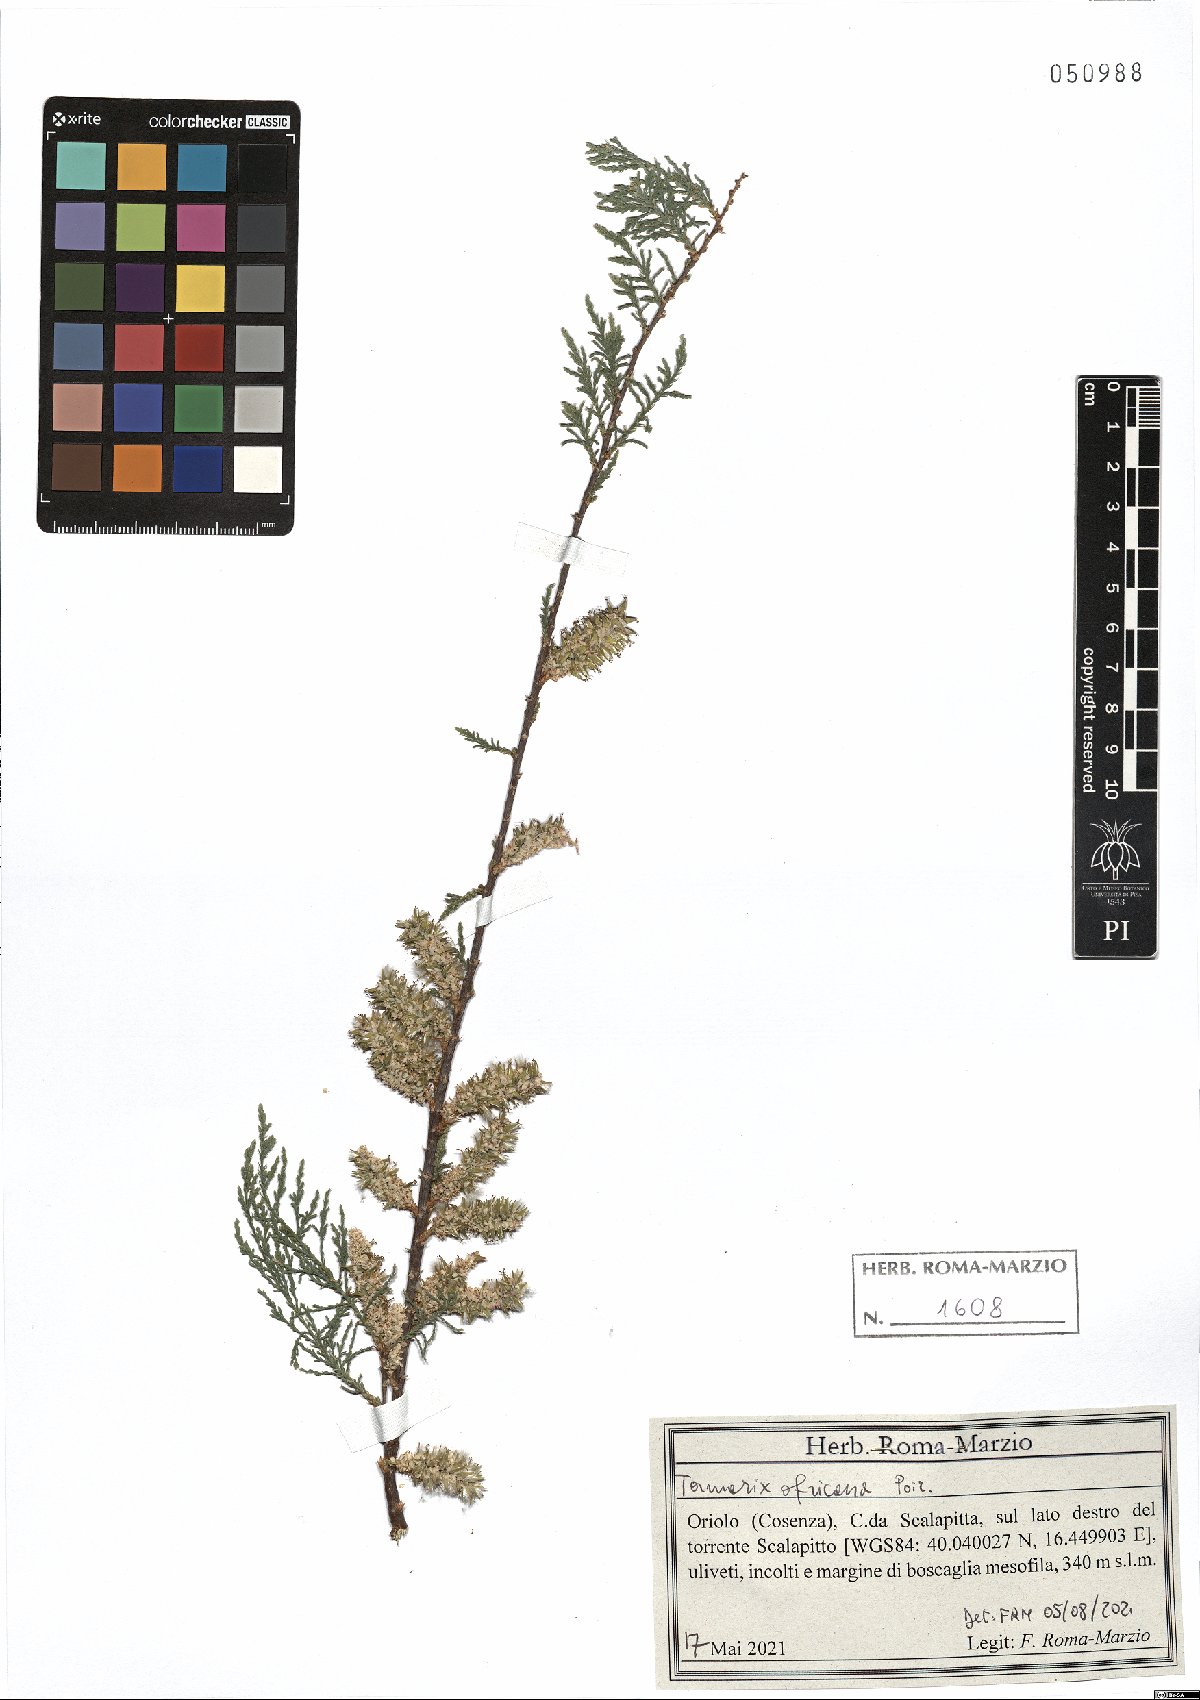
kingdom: Plantae
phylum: Tracheophyta
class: Magnoliopsida
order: Caryophyllales
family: Tamaricaceae
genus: Tamarix
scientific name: Tamarix africana
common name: African tamarisk
